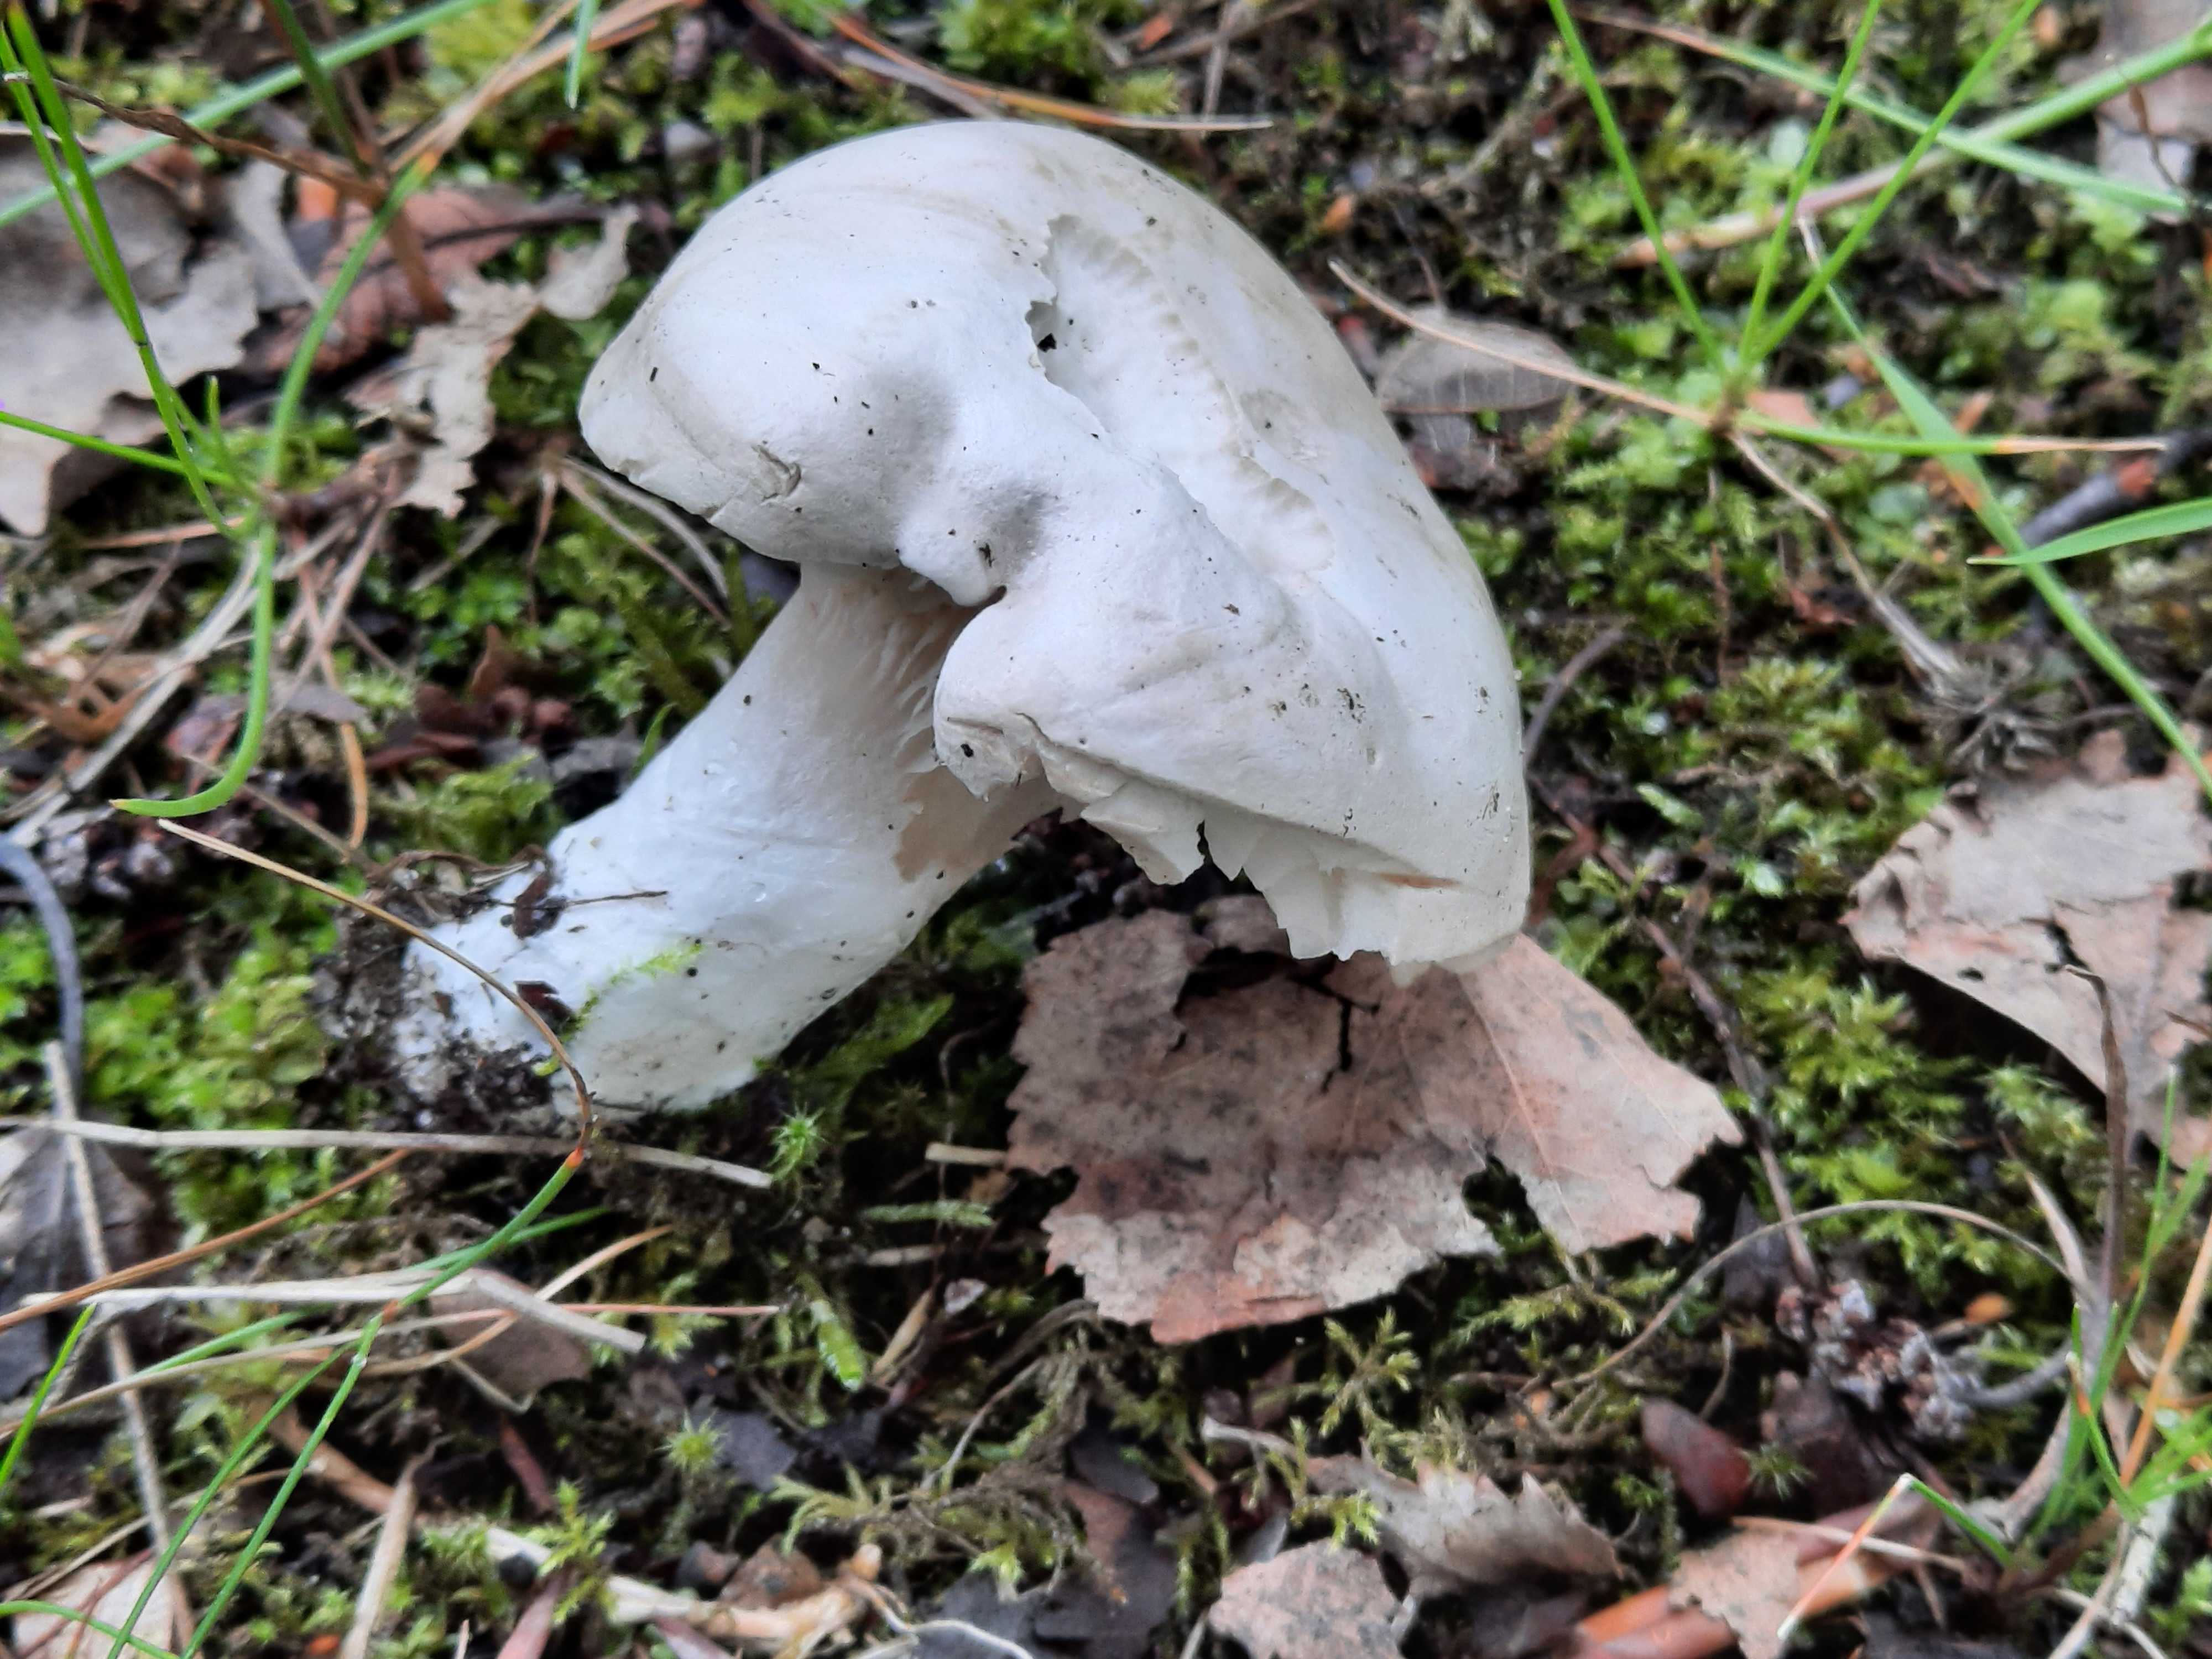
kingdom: Fungi
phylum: Basidiomycota
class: Agaricomycetes
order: Agaricales
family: Entolomataceae
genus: Clitopilus
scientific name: Clitopilus prunulus
